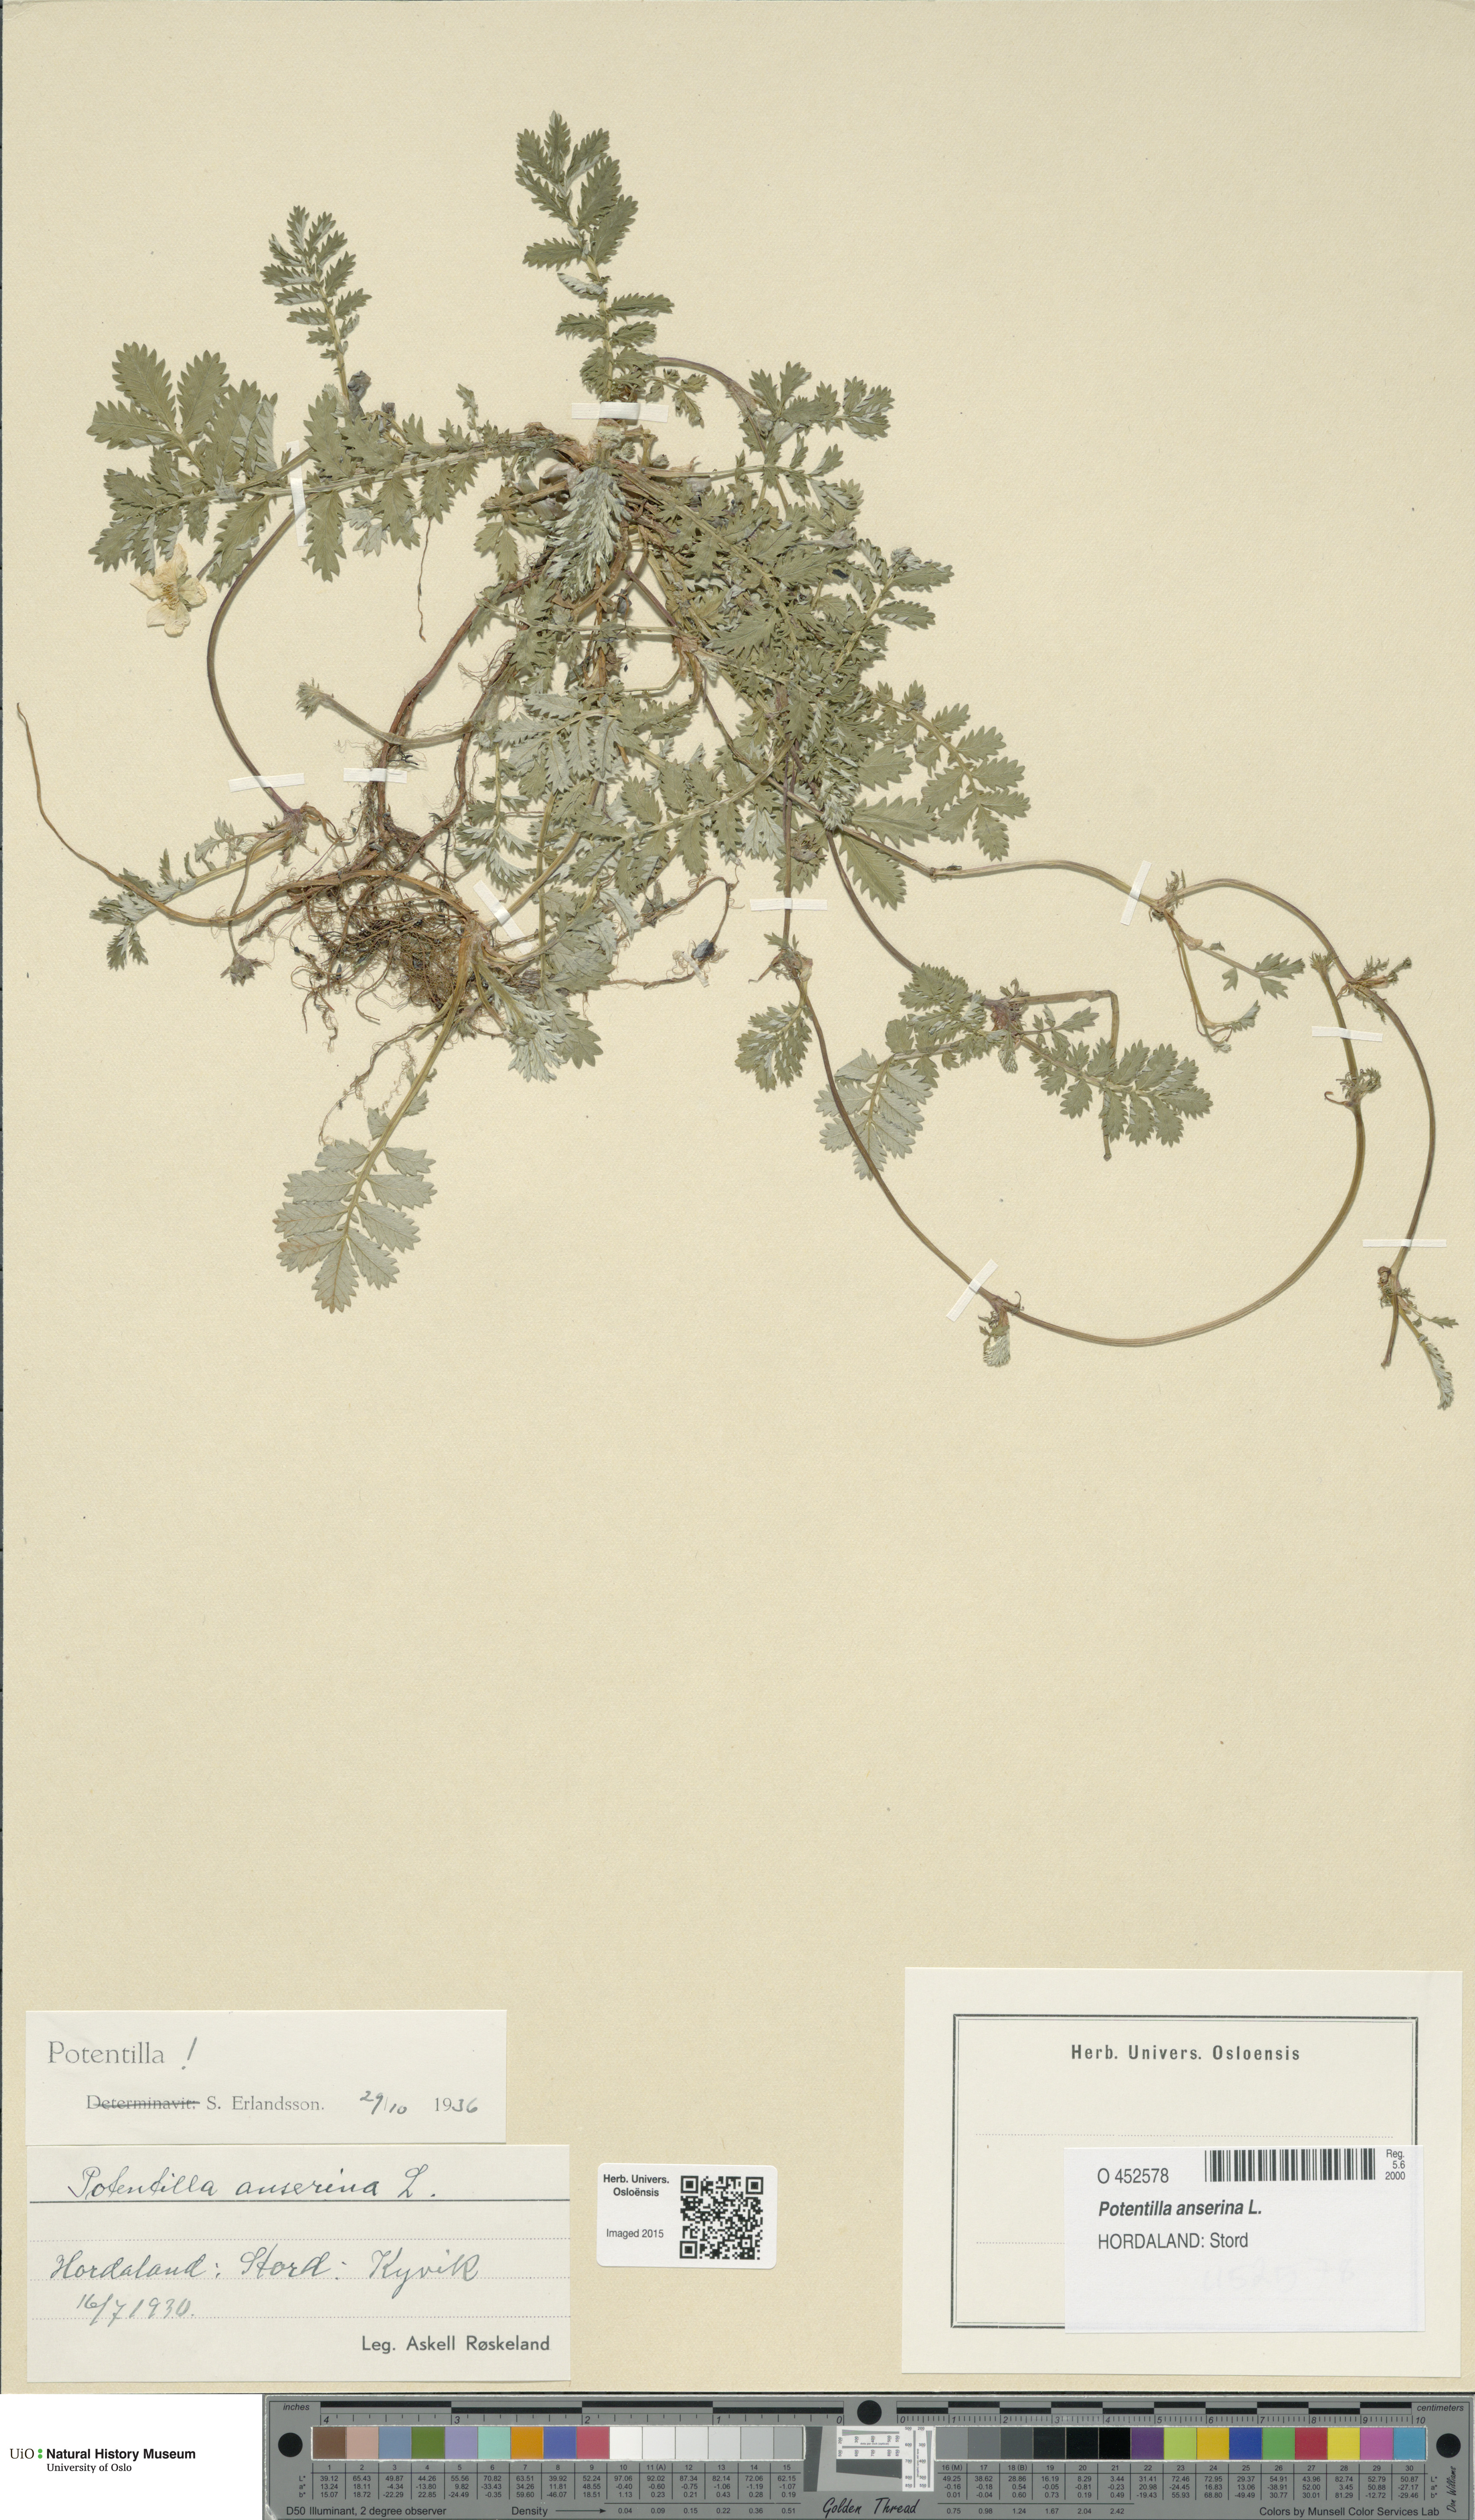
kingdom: Plantae
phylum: Tracheophyta
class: Magnoliopsida
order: Rosales
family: Rosaceae
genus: Argentina
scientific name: Argentina anserina
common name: Common silverweed
